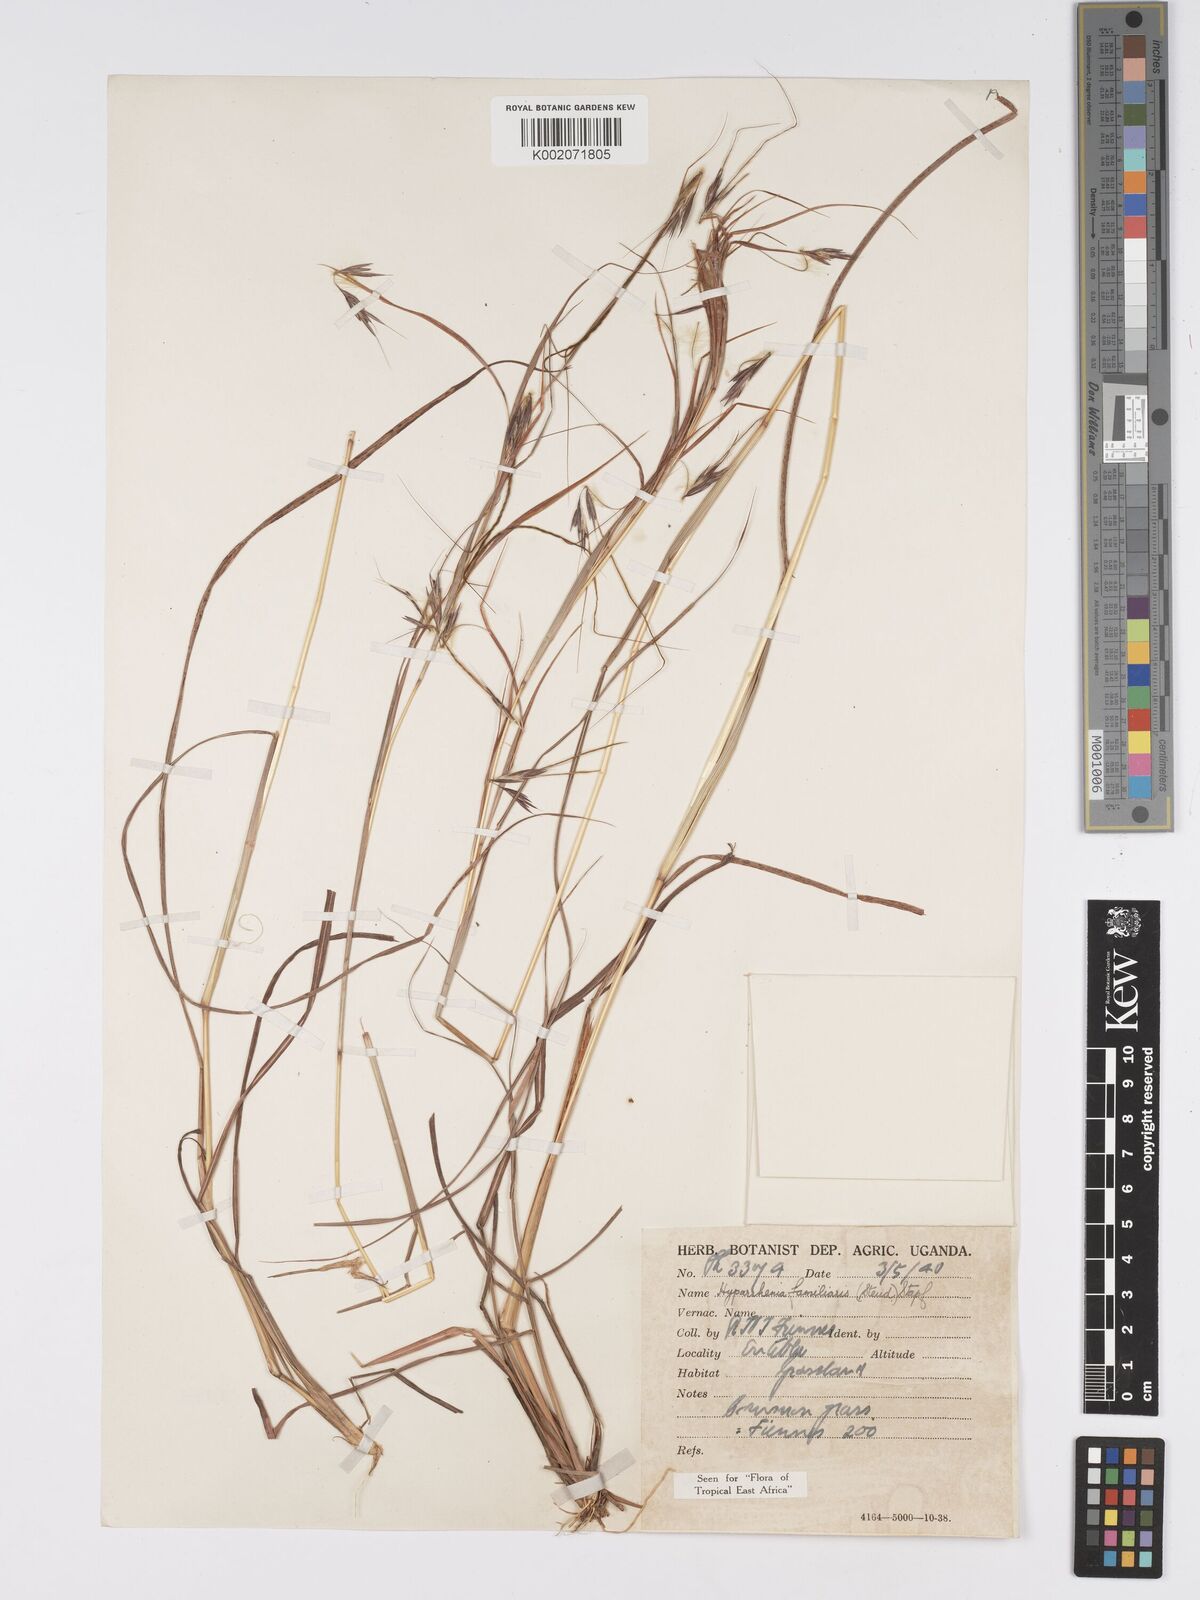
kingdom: Plantae
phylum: Tracheophyta
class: Liliopsida
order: Poales
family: Poaceae
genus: Hyparrhenia
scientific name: Hyparrhenia familiaris
